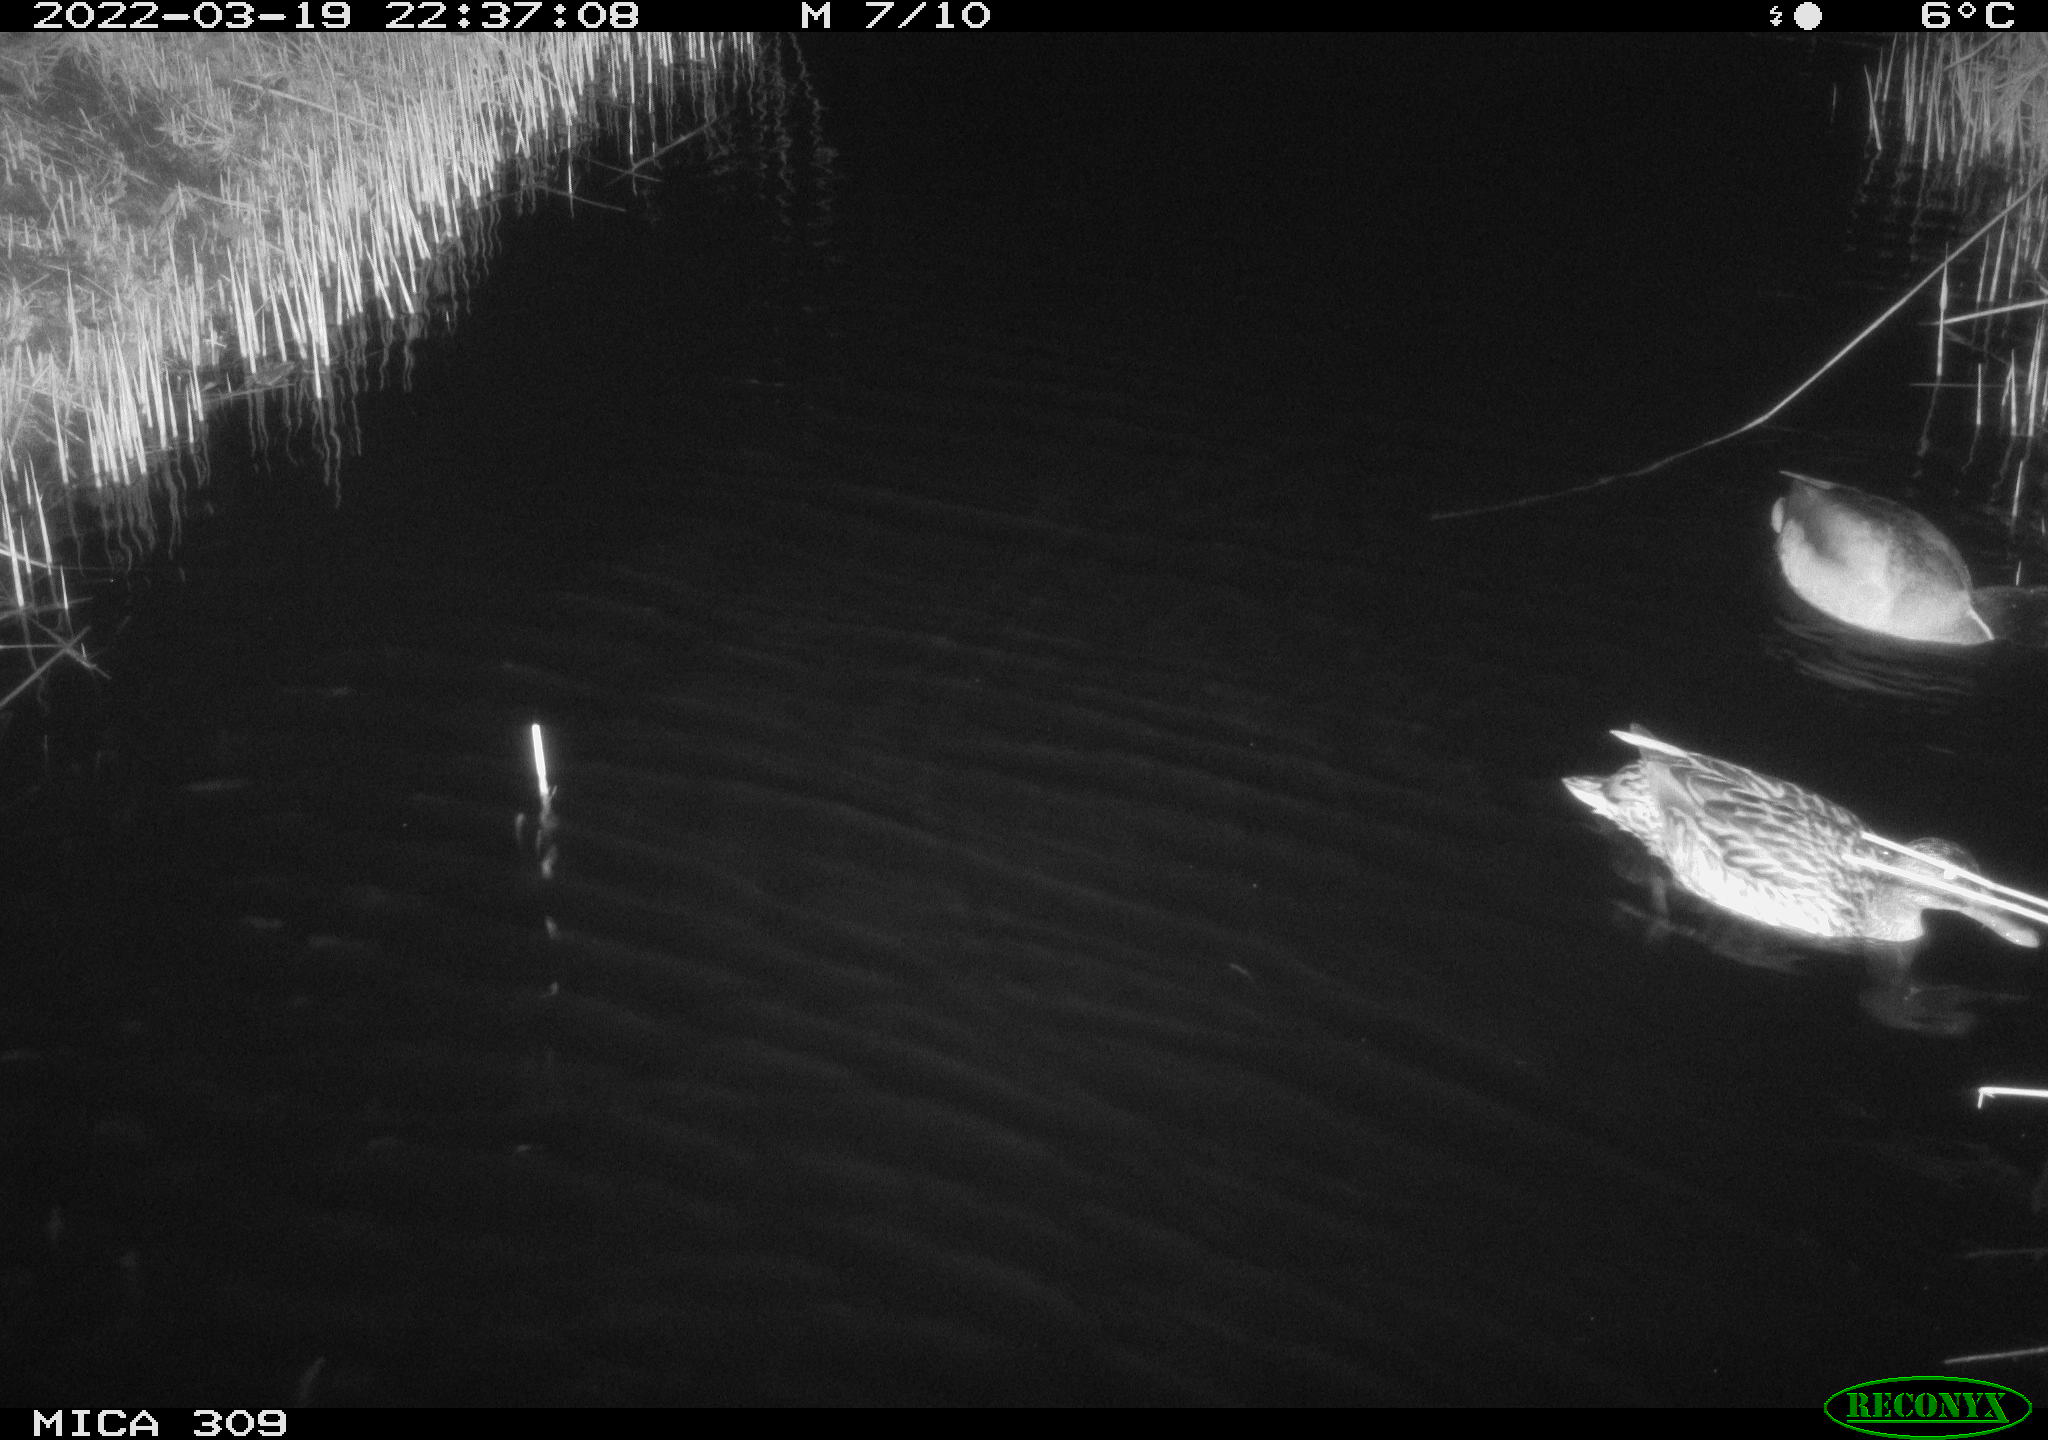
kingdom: Animalia
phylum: Chordata
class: Aves
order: Anseriformes
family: Anatidae
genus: Anas
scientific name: Anas platyrhynchos
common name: Mallard
